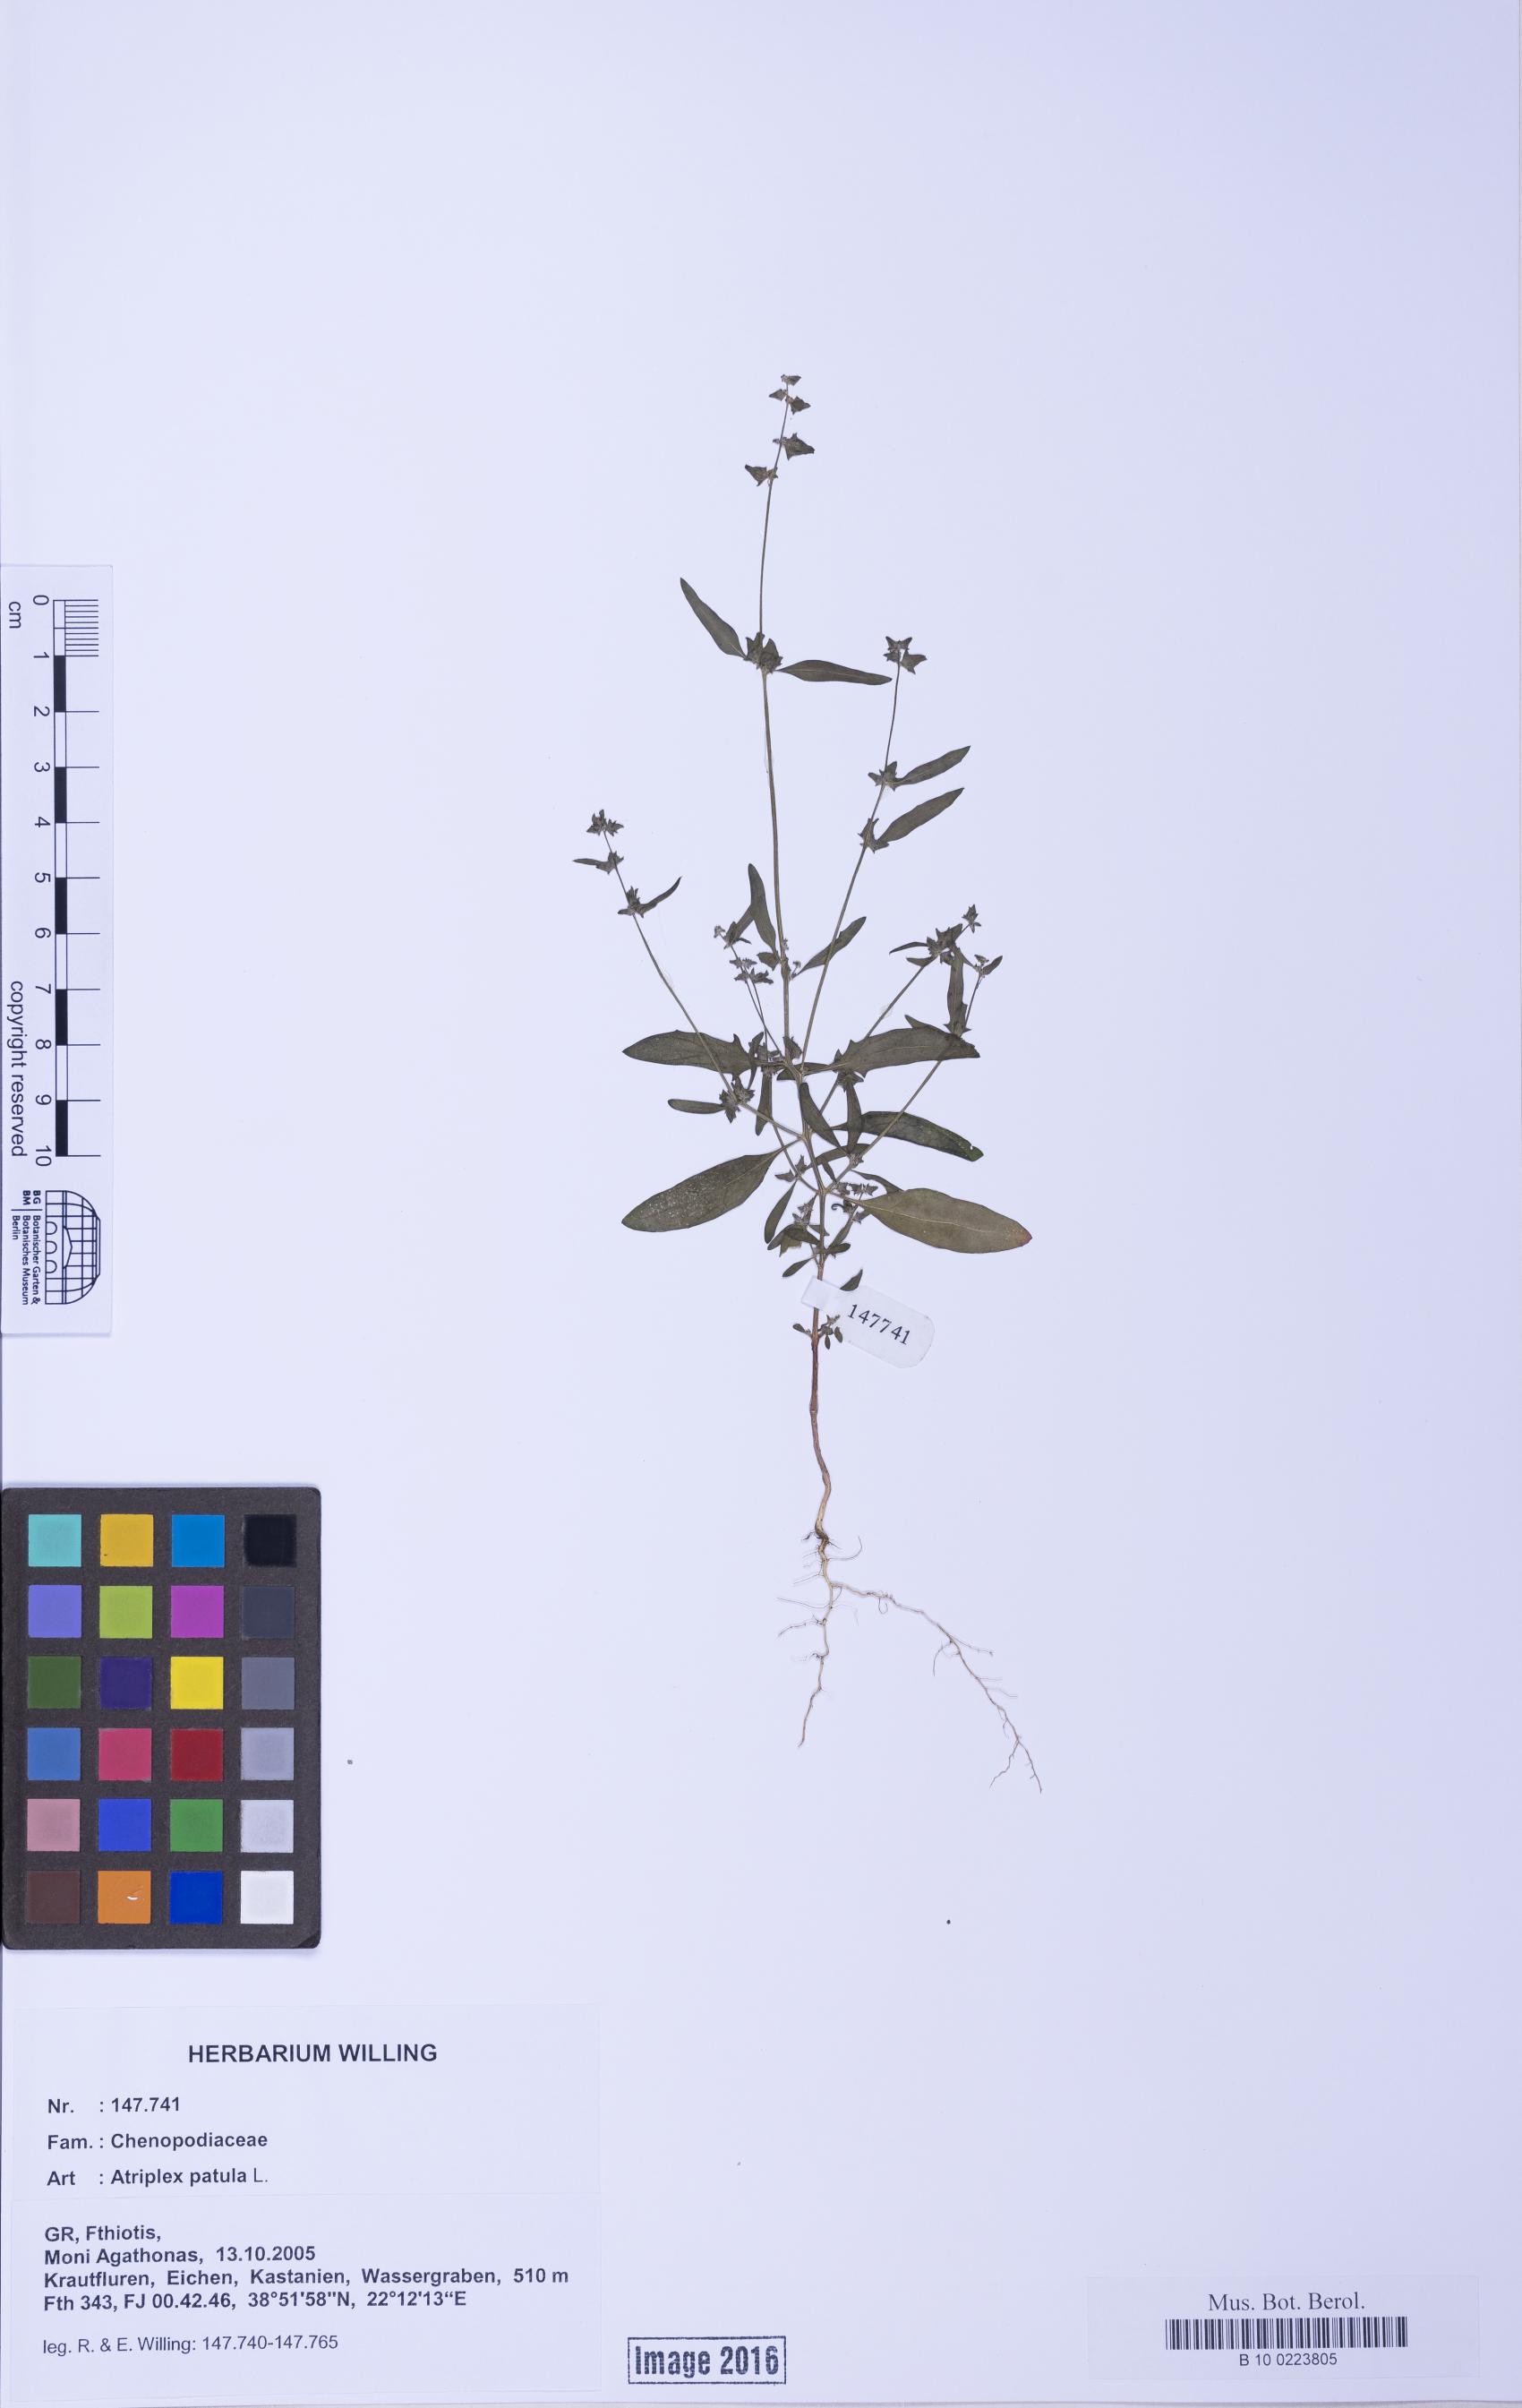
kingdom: Plantae
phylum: Tracheophyta
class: Magnoliopsida
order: Caryophyllales
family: Amaranthaceae
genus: Atriplex
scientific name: Atriplex patula
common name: Common orache
